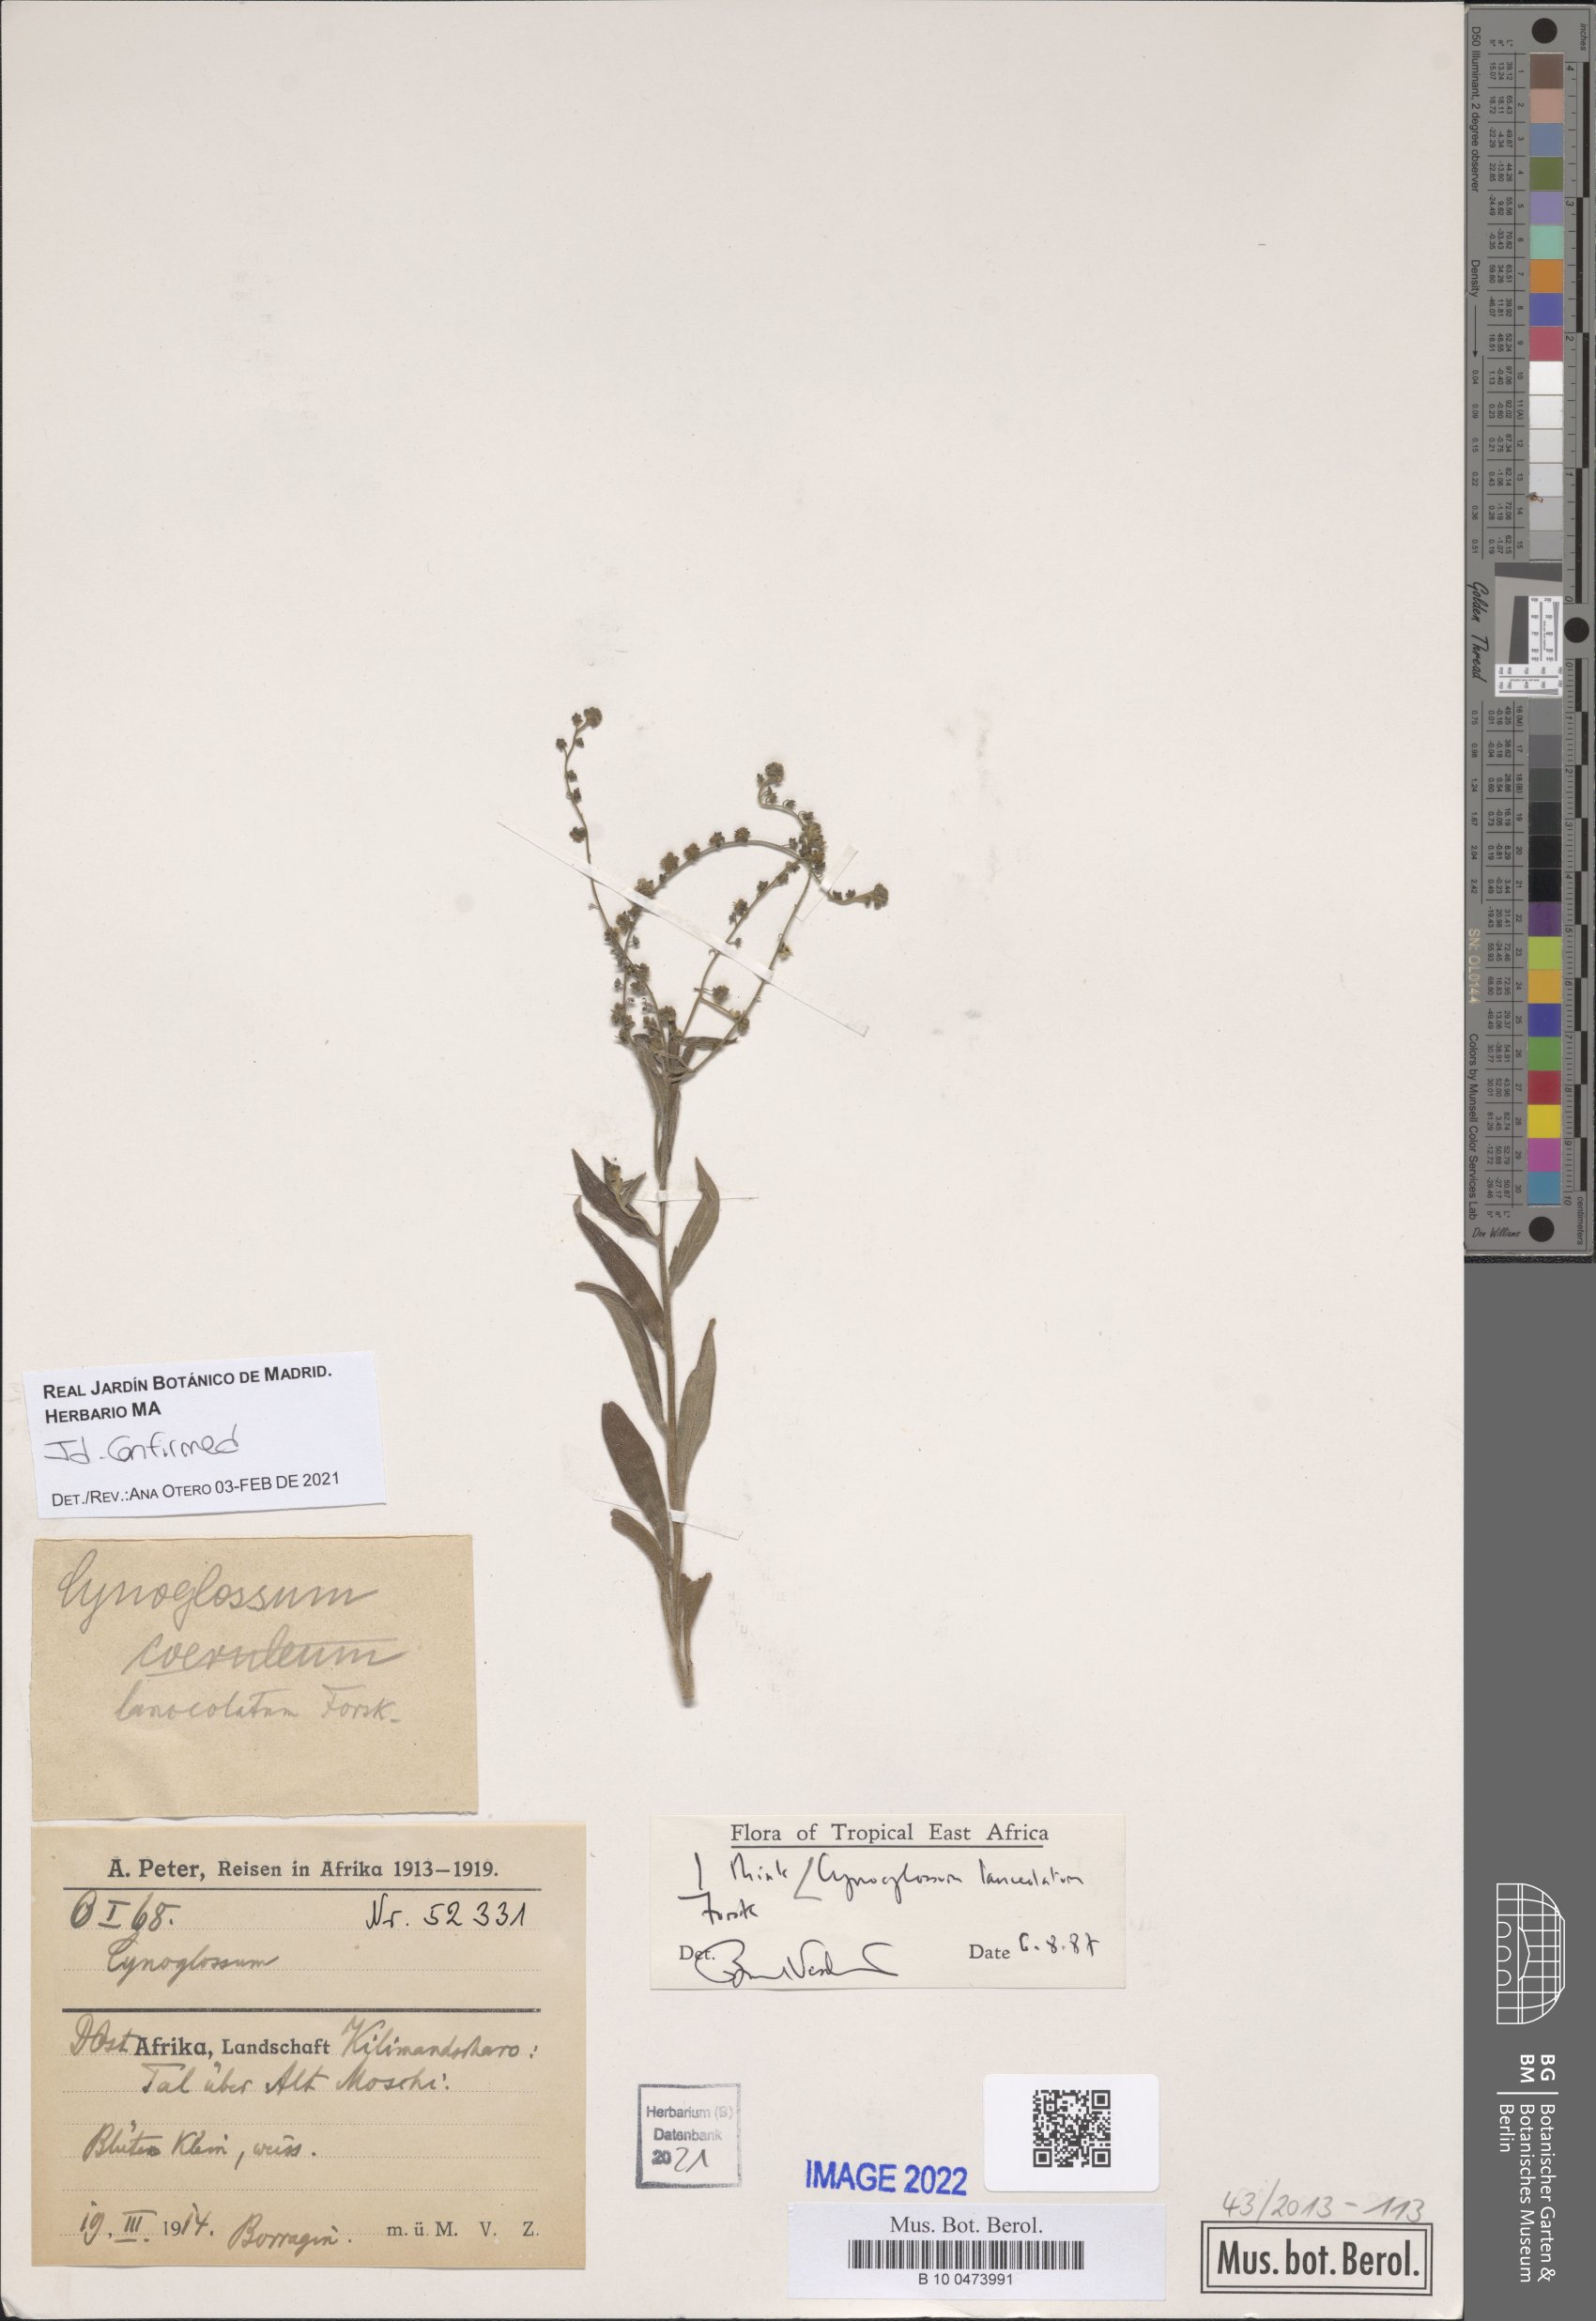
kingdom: Plantae
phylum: Tracheophyta
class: Magnoliopsida
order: Boraginales
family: Boraginaceae
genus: Paracynoglossum
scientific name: Paracynoglossum lanceolatum
